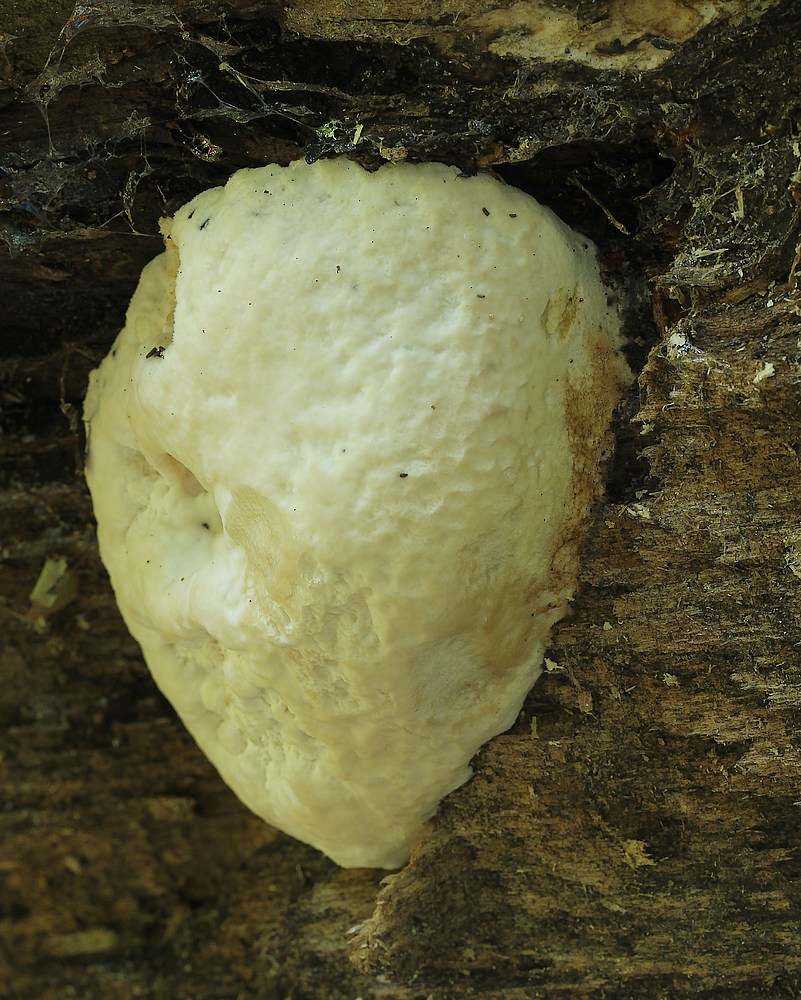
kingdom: Fungi
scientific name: Fungi
